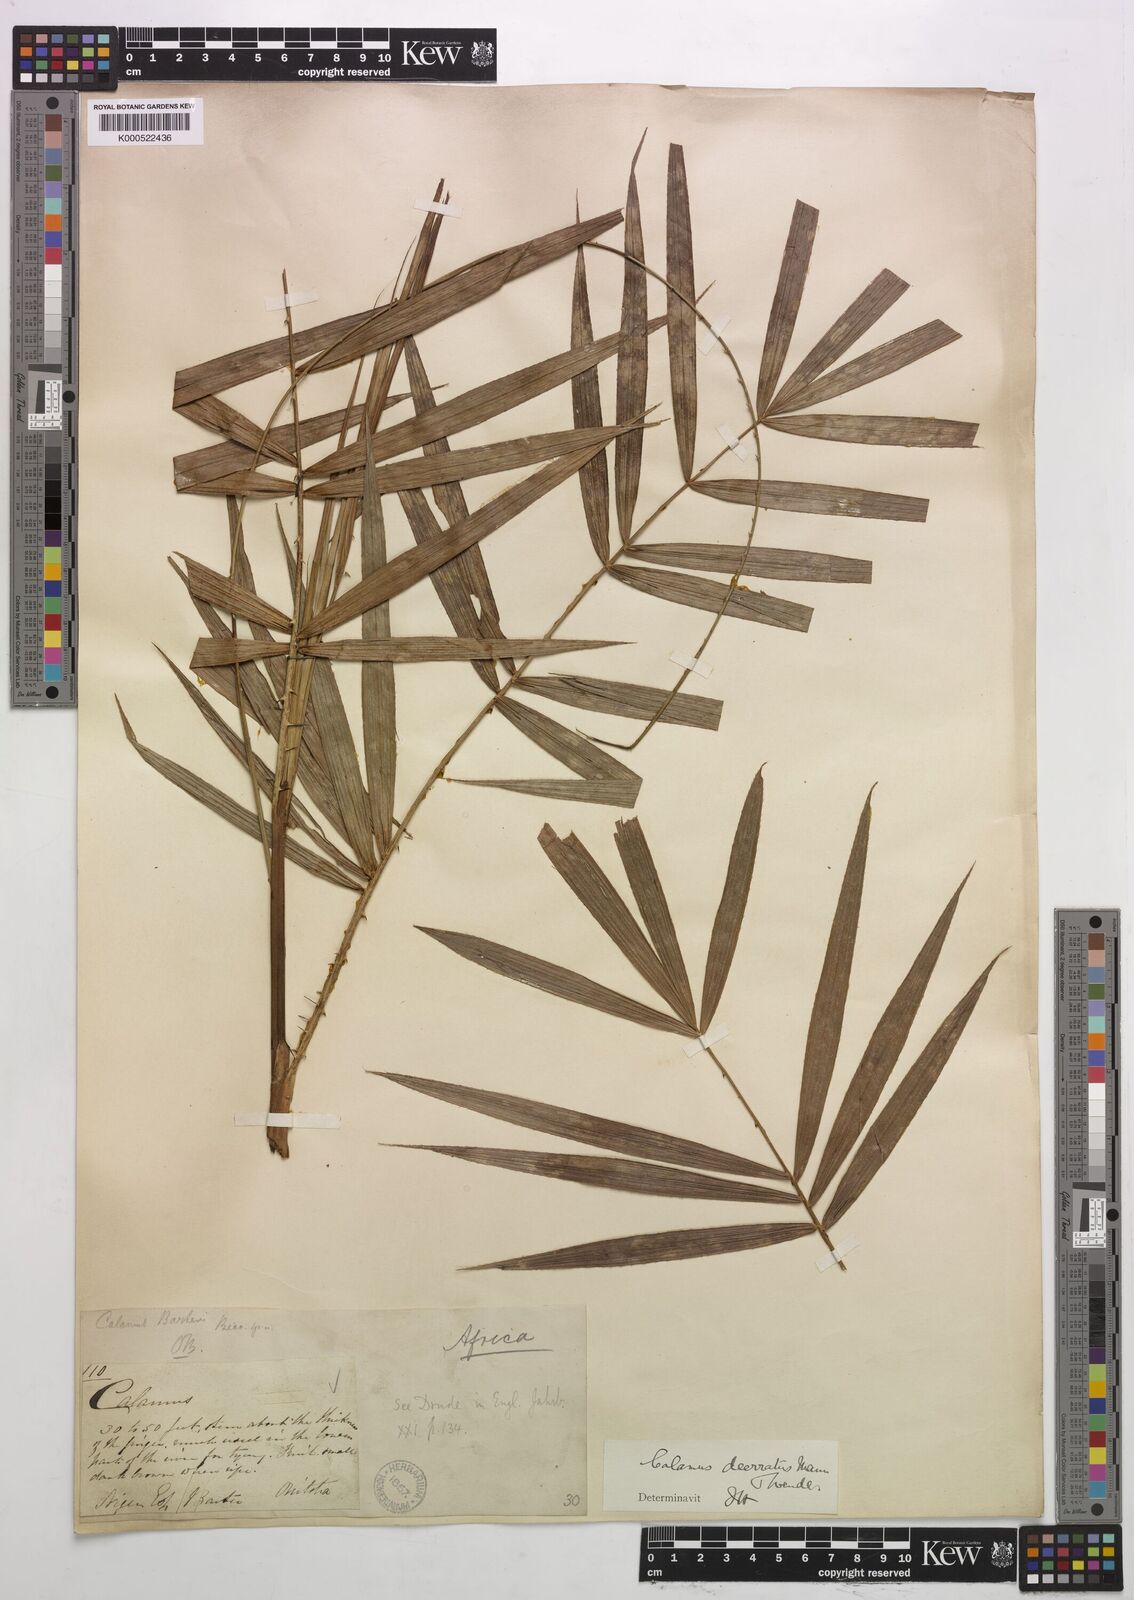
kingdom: Plantae
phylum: Tracheophyta
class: Liliopsida
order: Arecales
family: Arecaceae
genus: Calamus
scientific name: Calamus deerratus
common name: Rattan
